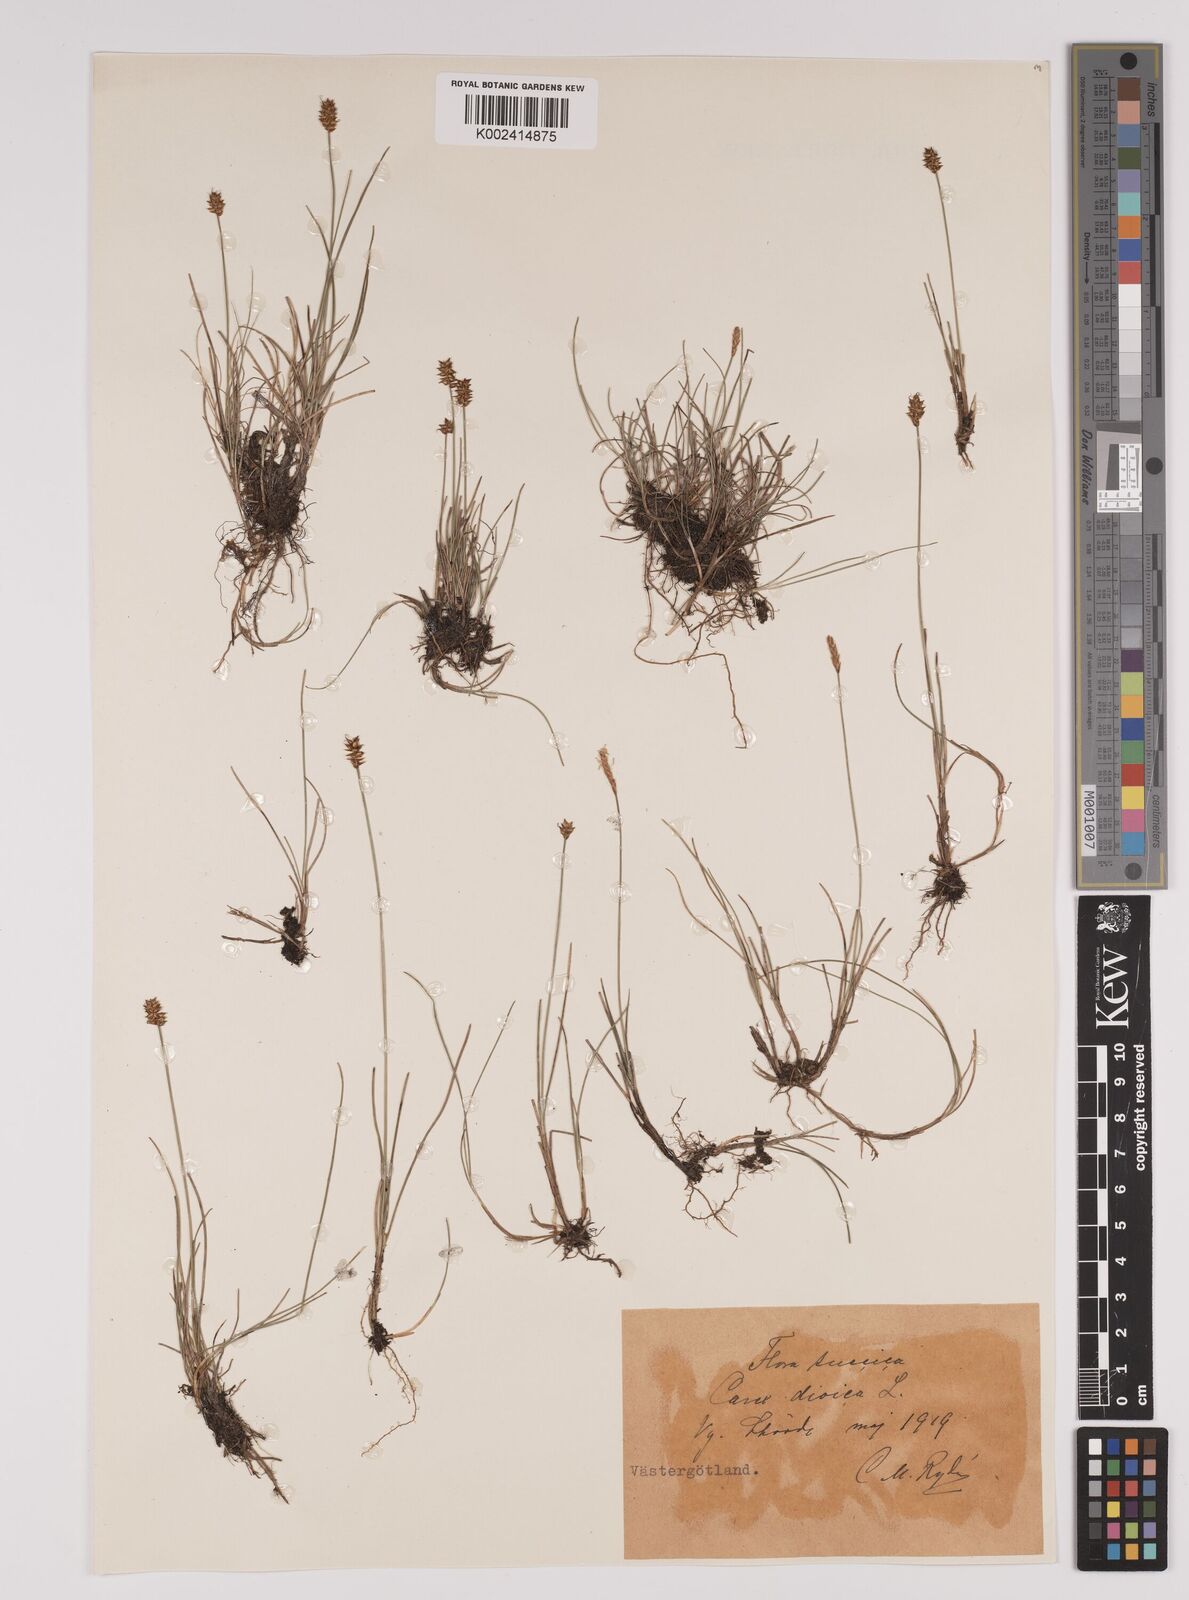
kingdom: Plantae
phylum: Tracheophyta
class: Liliopsida
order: Poales
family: Cyperaceae
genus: Carex
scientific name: Carex dioica
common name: Dioecious sedge
